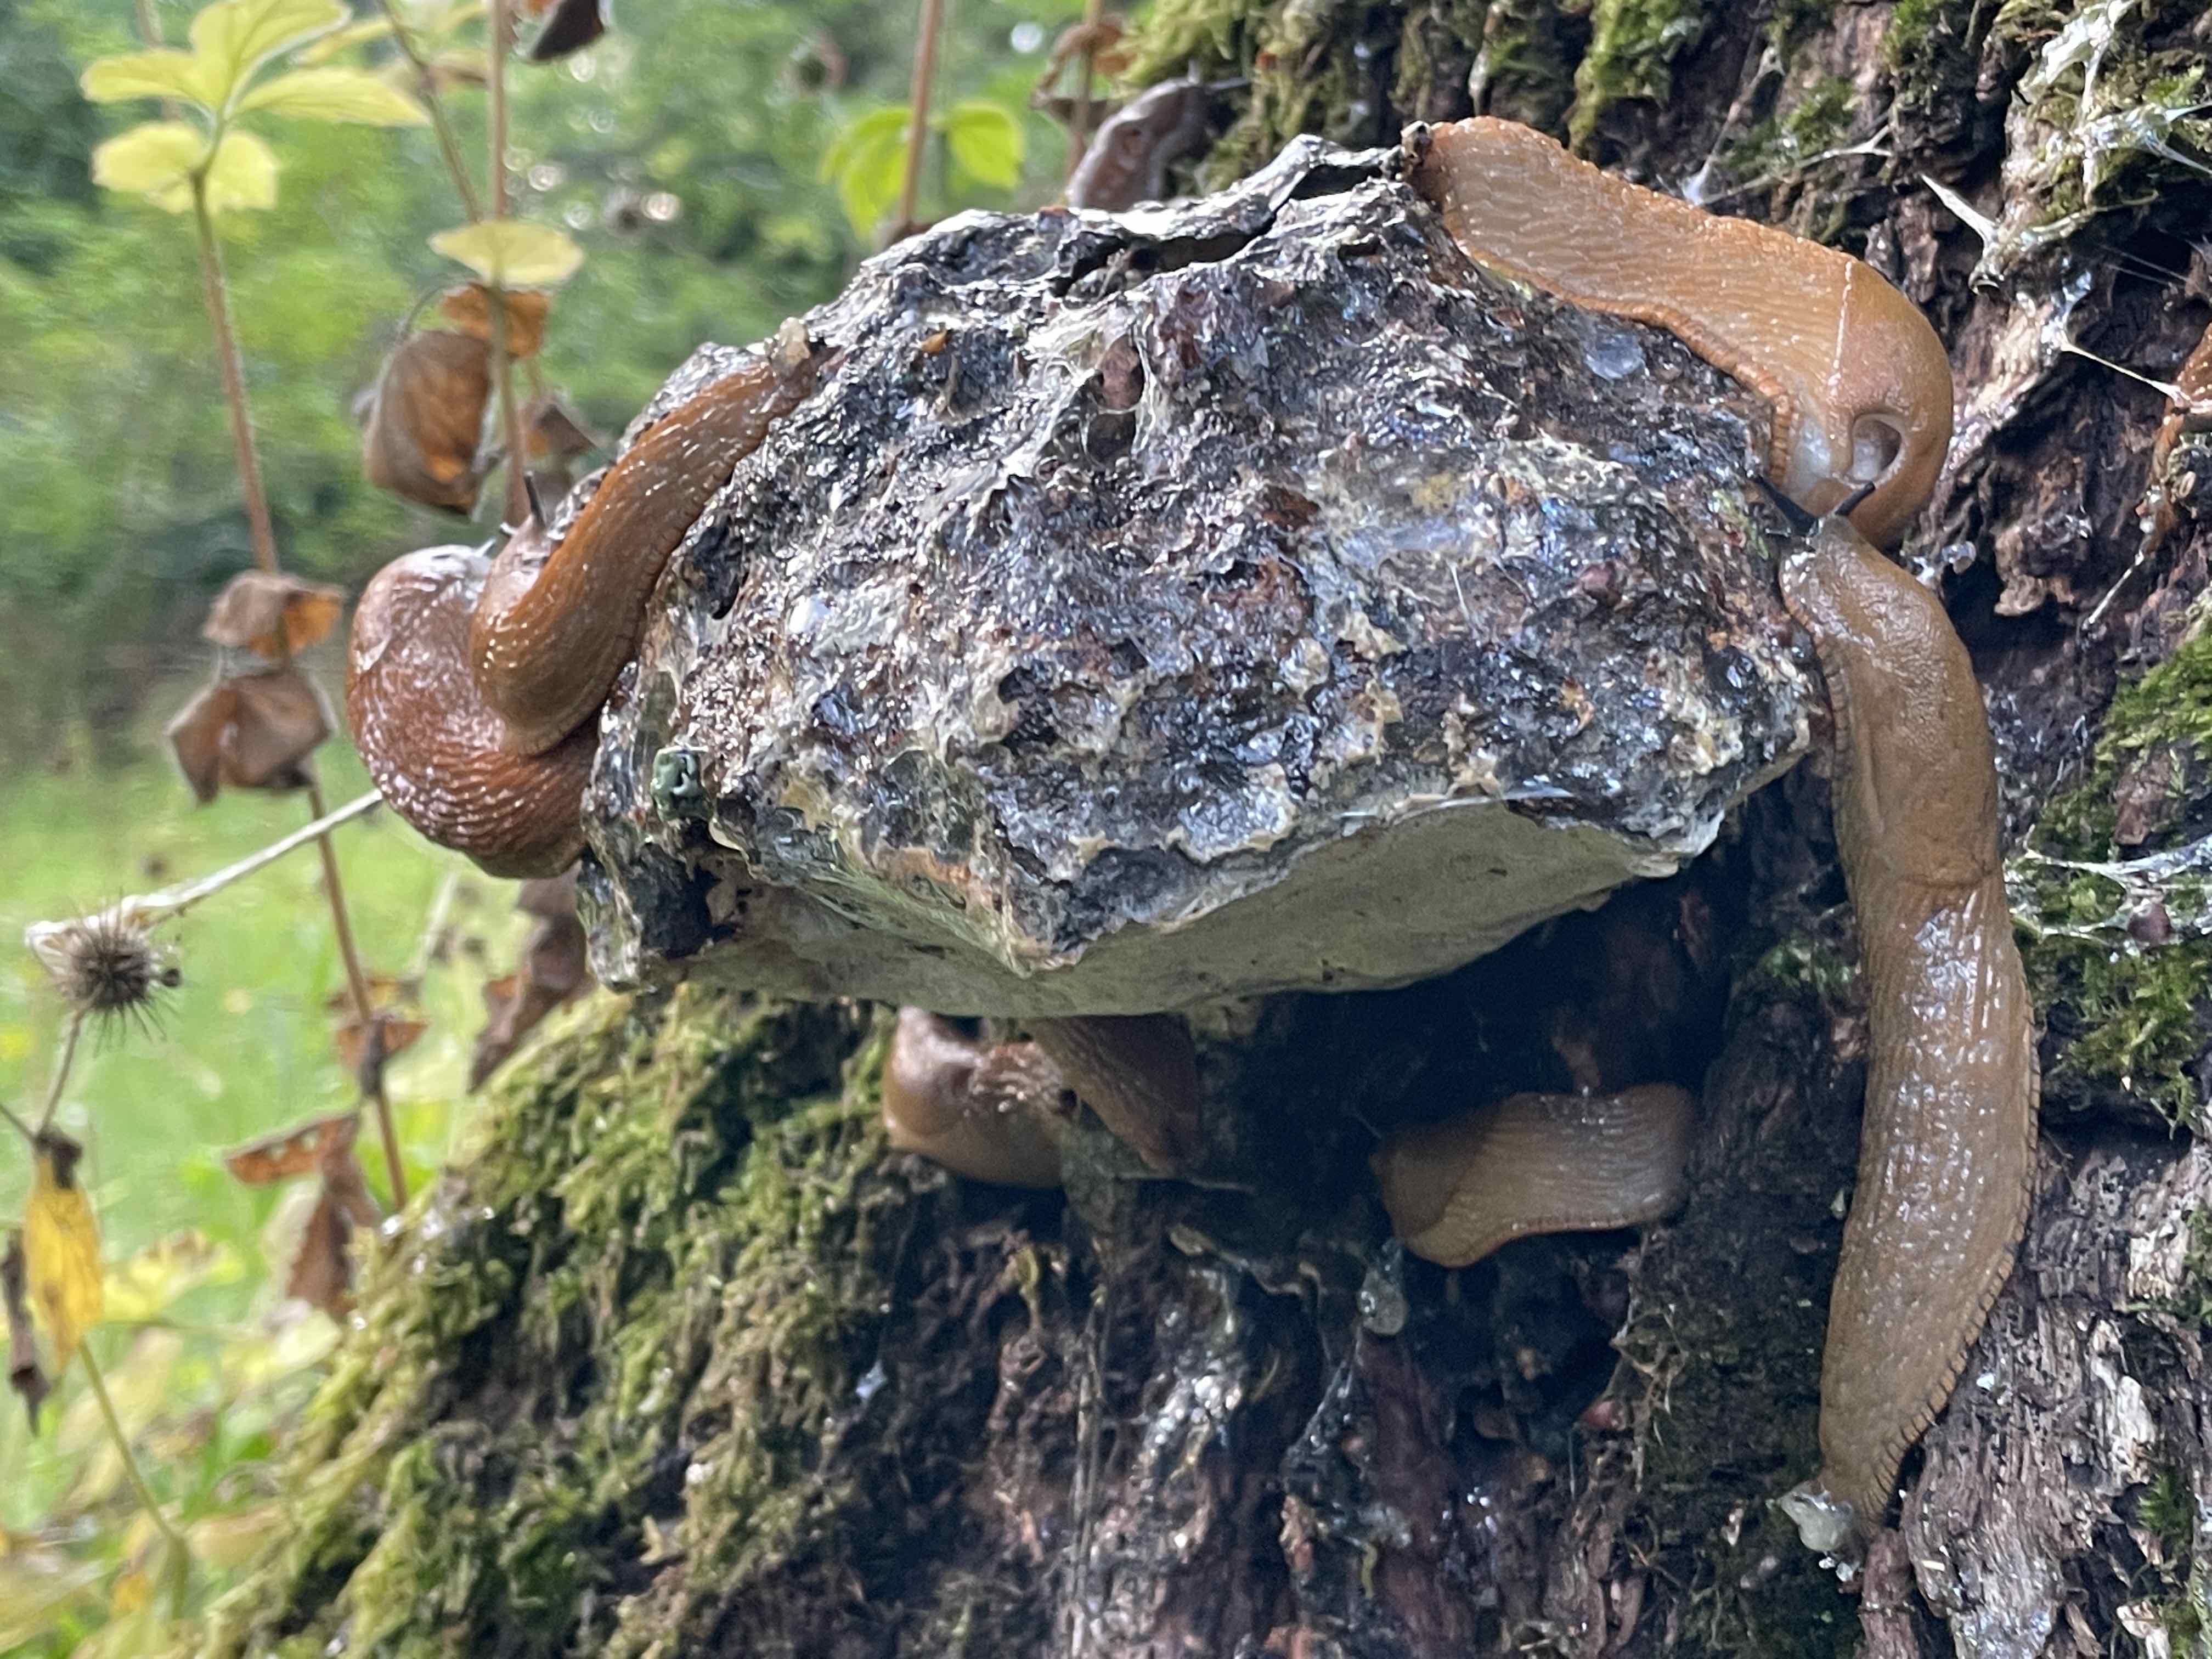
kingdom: Fungi
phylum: Basidiomycota
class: Agaricomycetes
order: Hymenochaetales
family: Hymenochaetaceae
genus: Pseudoinonotus
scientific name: Pseudoinonotus dryadeus
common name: ege-spejlporesvamp
